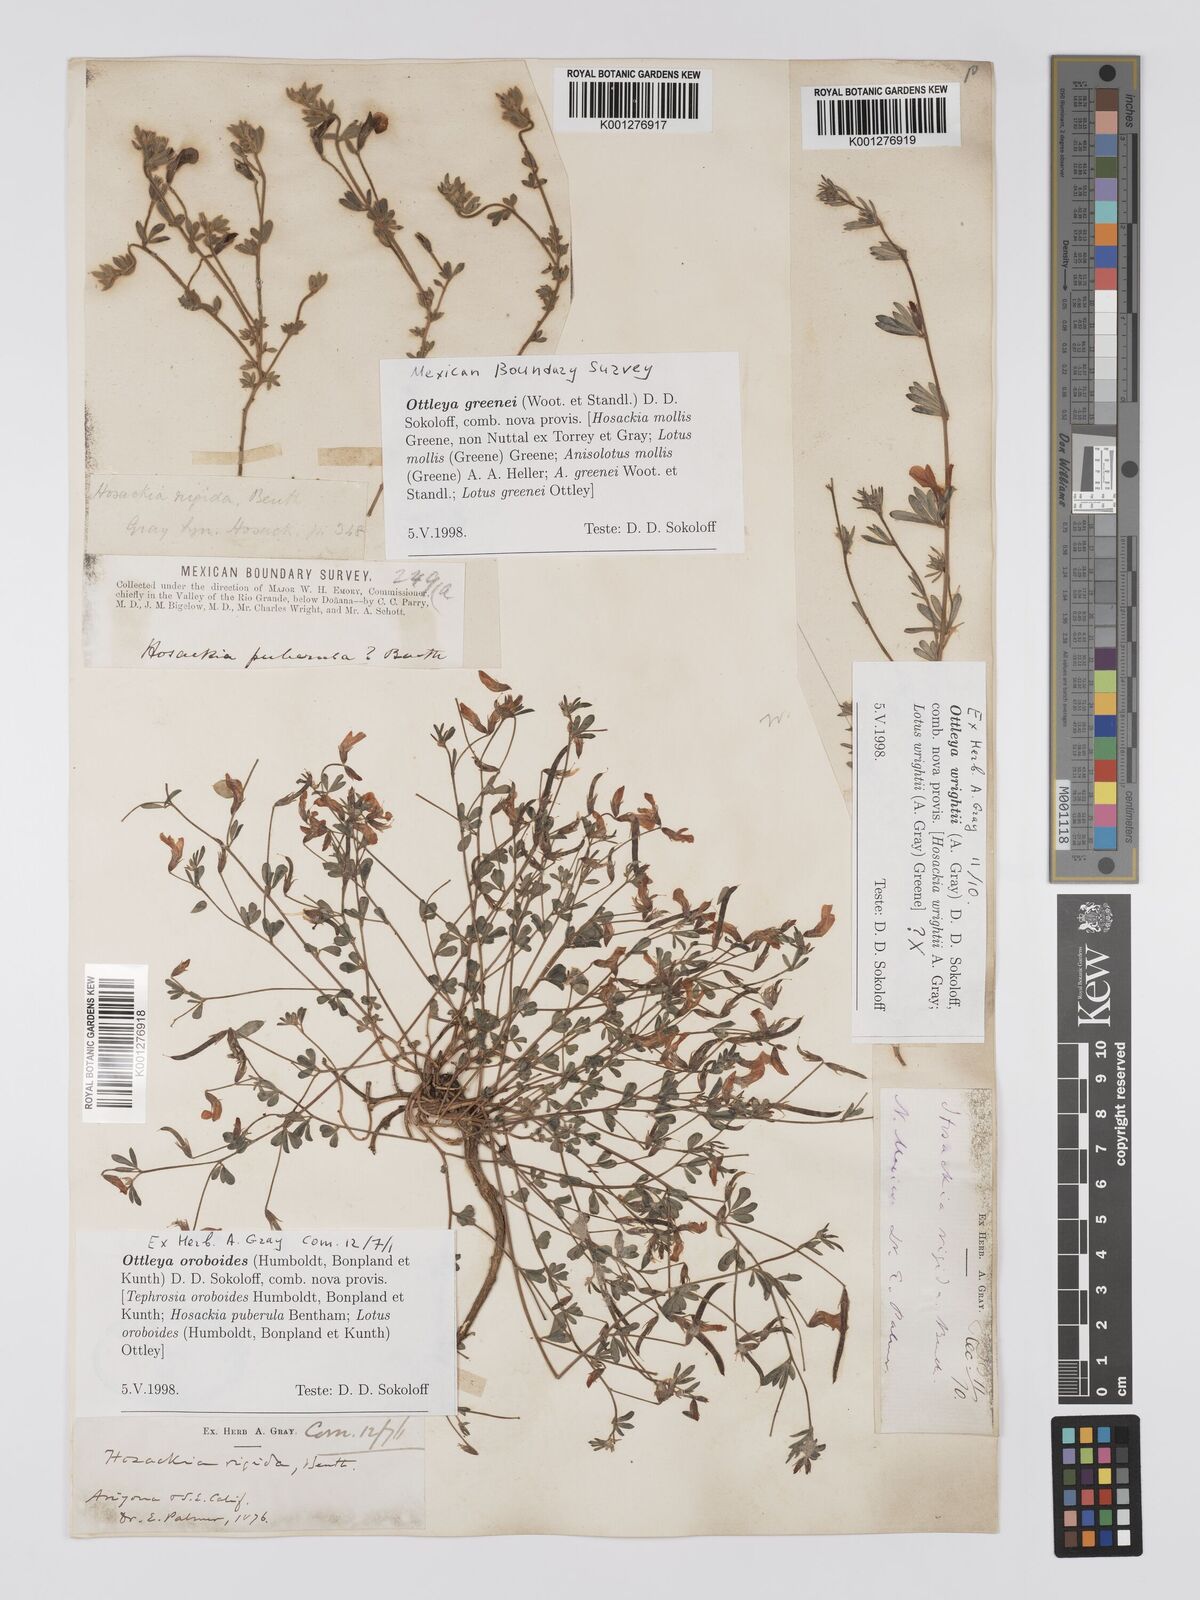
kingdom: Plantae
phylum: Tracheophyta
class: Magnoliopsida
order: Fabales
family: Fabaceae
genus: Acmispon
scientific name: Acmispon neomexicanus
